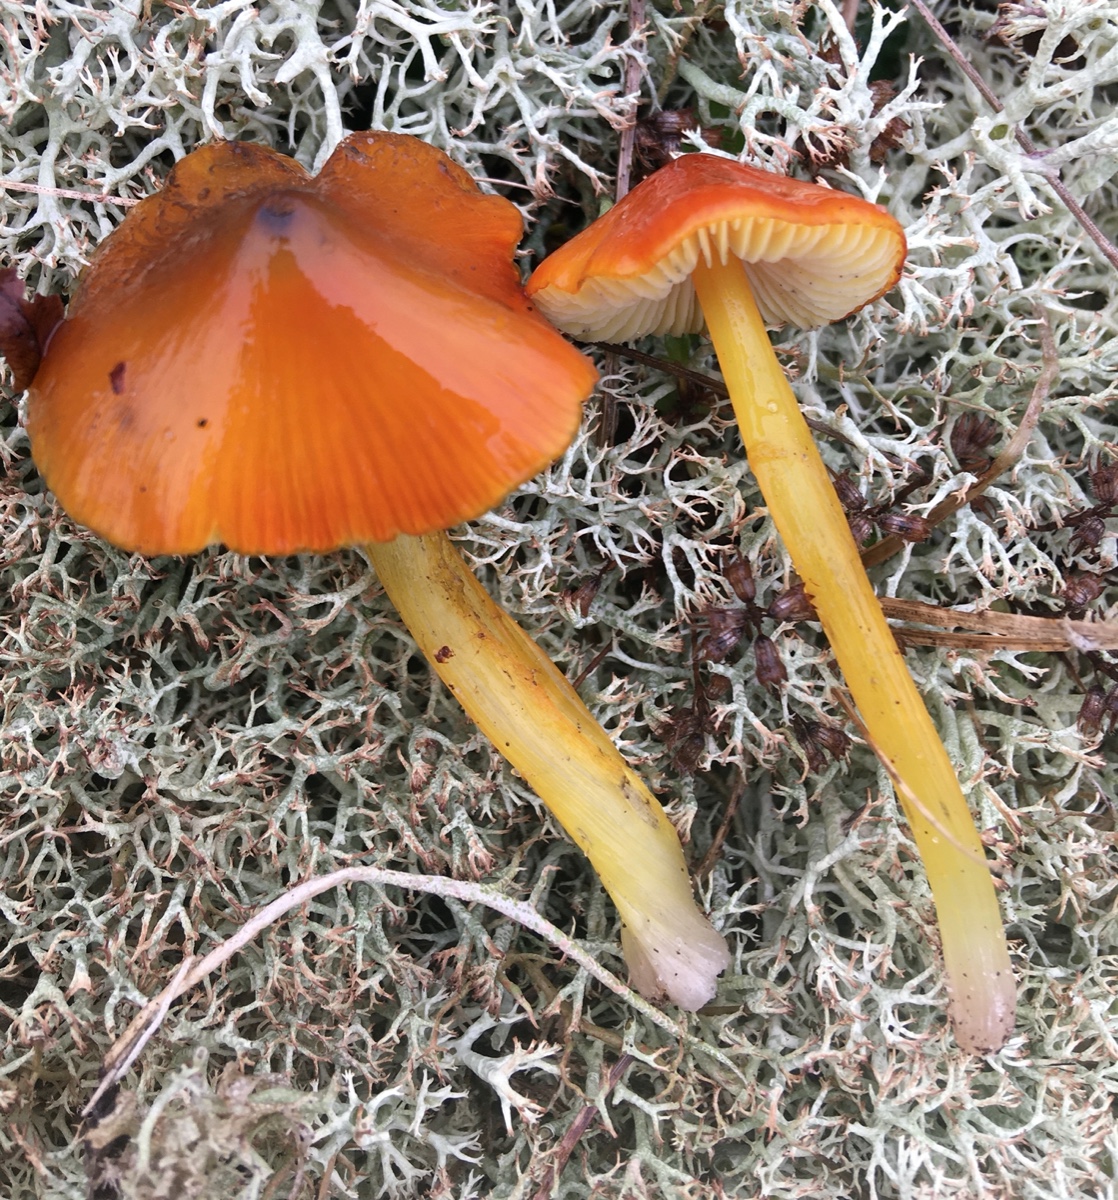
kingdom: Fungi
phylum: Basidiomycota
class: Agaricomycetes
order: Agaricales
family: Hygrophoraceae
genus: Hygrocybe
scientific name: Hygrocybe conica
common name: kegle-vokshat
